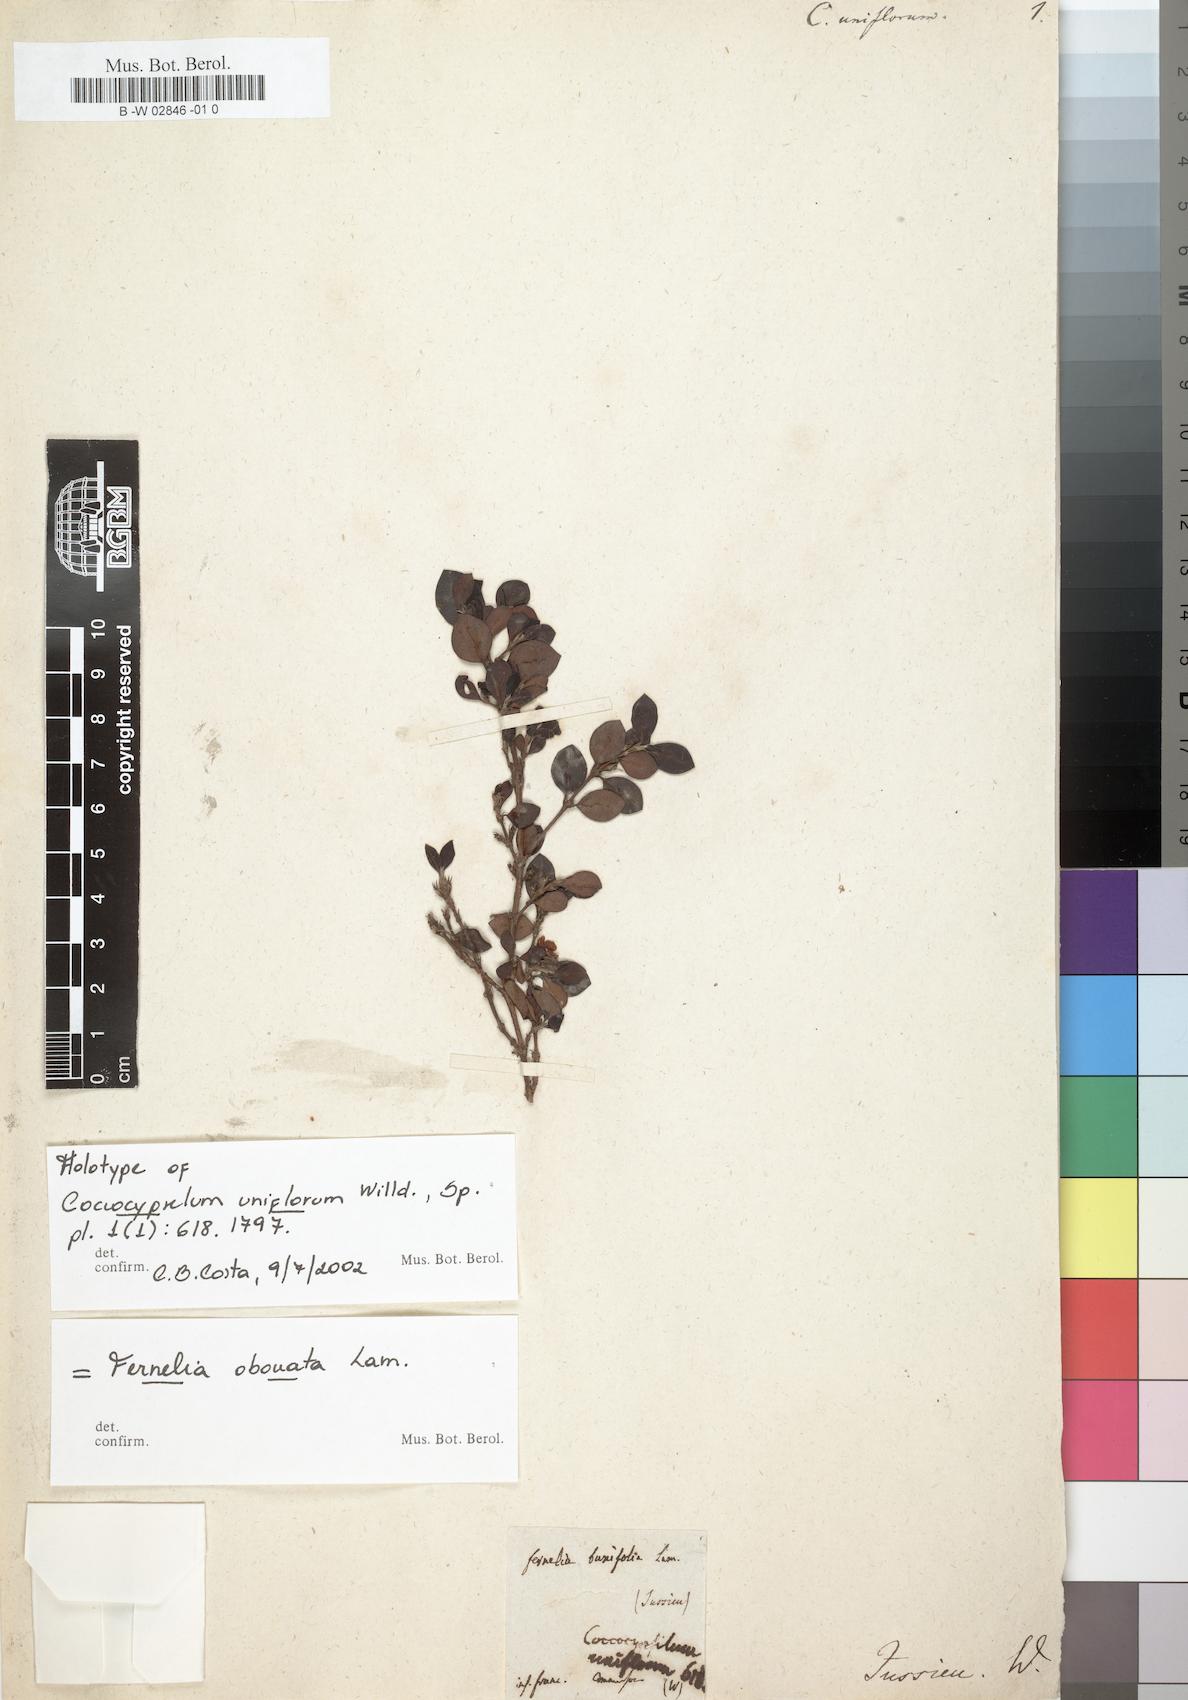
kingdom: Plantae
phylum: Tracheophyta
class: Magnoliopsida
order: Gentianales
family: Rubiaceae
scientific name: Rubiaceae
